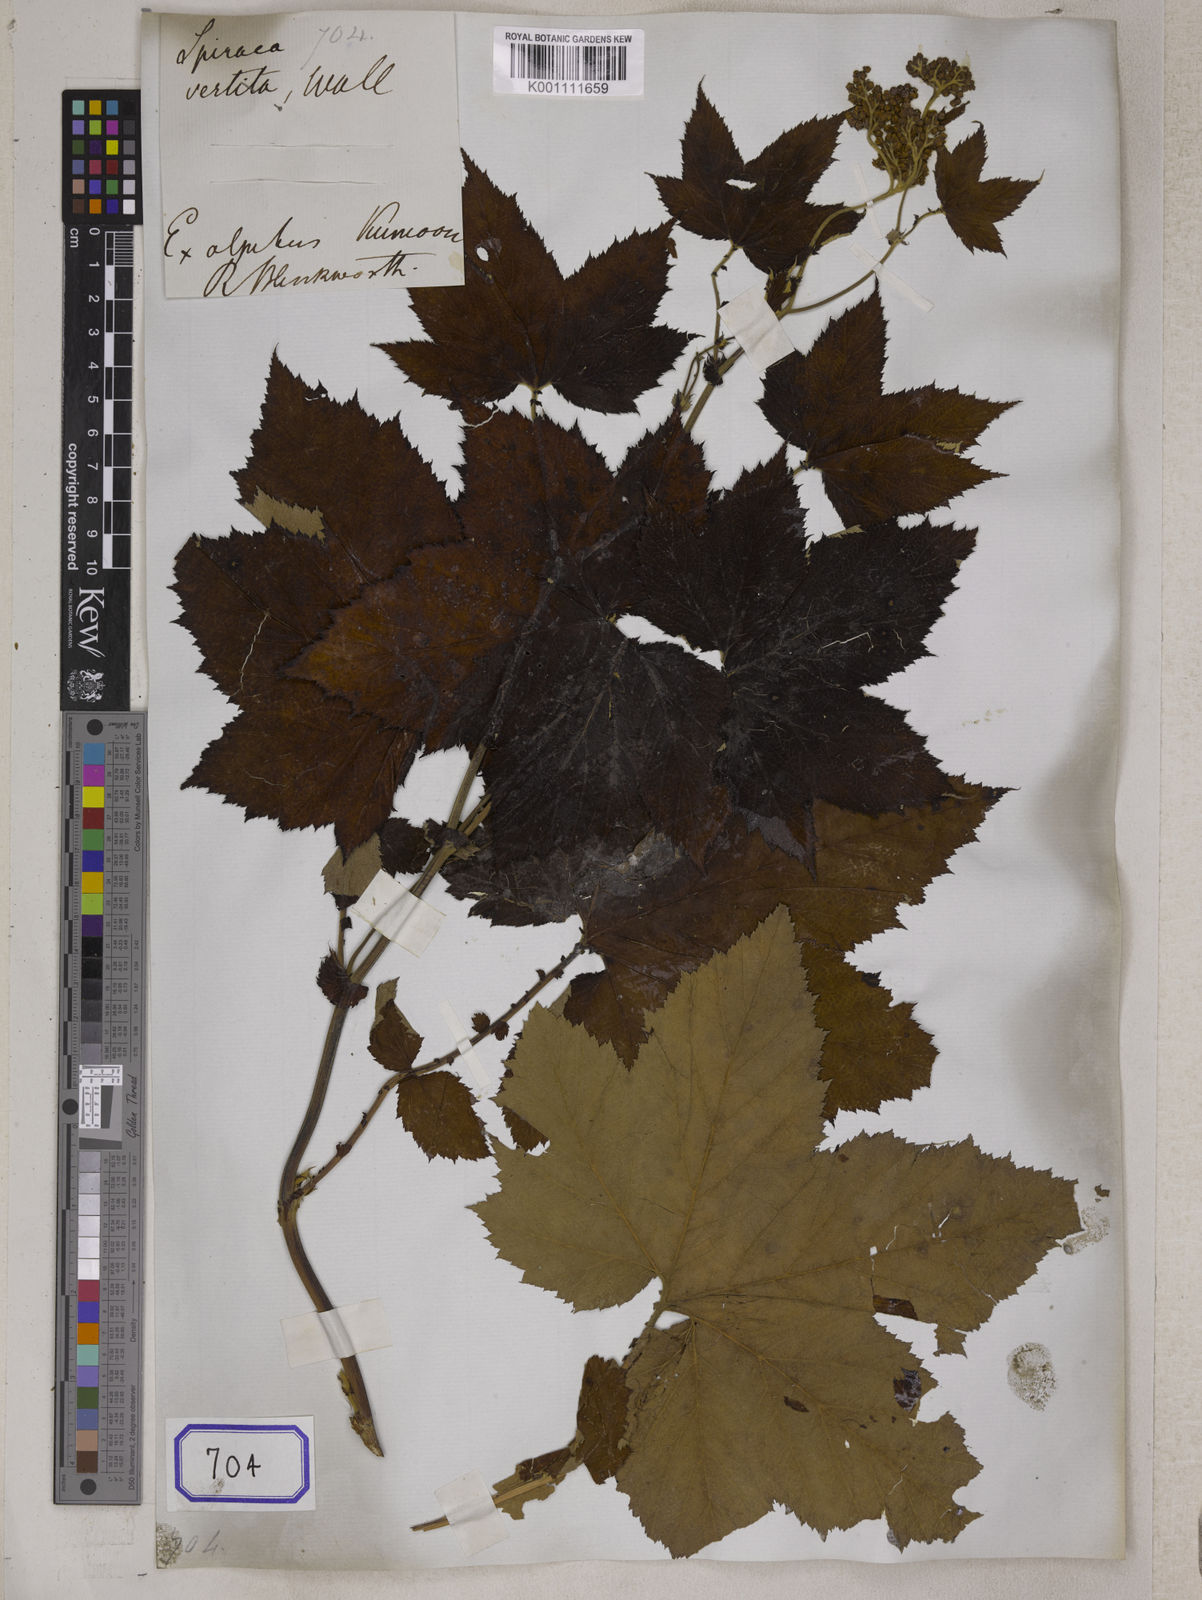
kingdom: Plantae
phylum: Tracheophyta
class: Magnoliopsida
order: Rosales
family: Rosaceae
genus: Spiraea
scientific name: Spiraea
